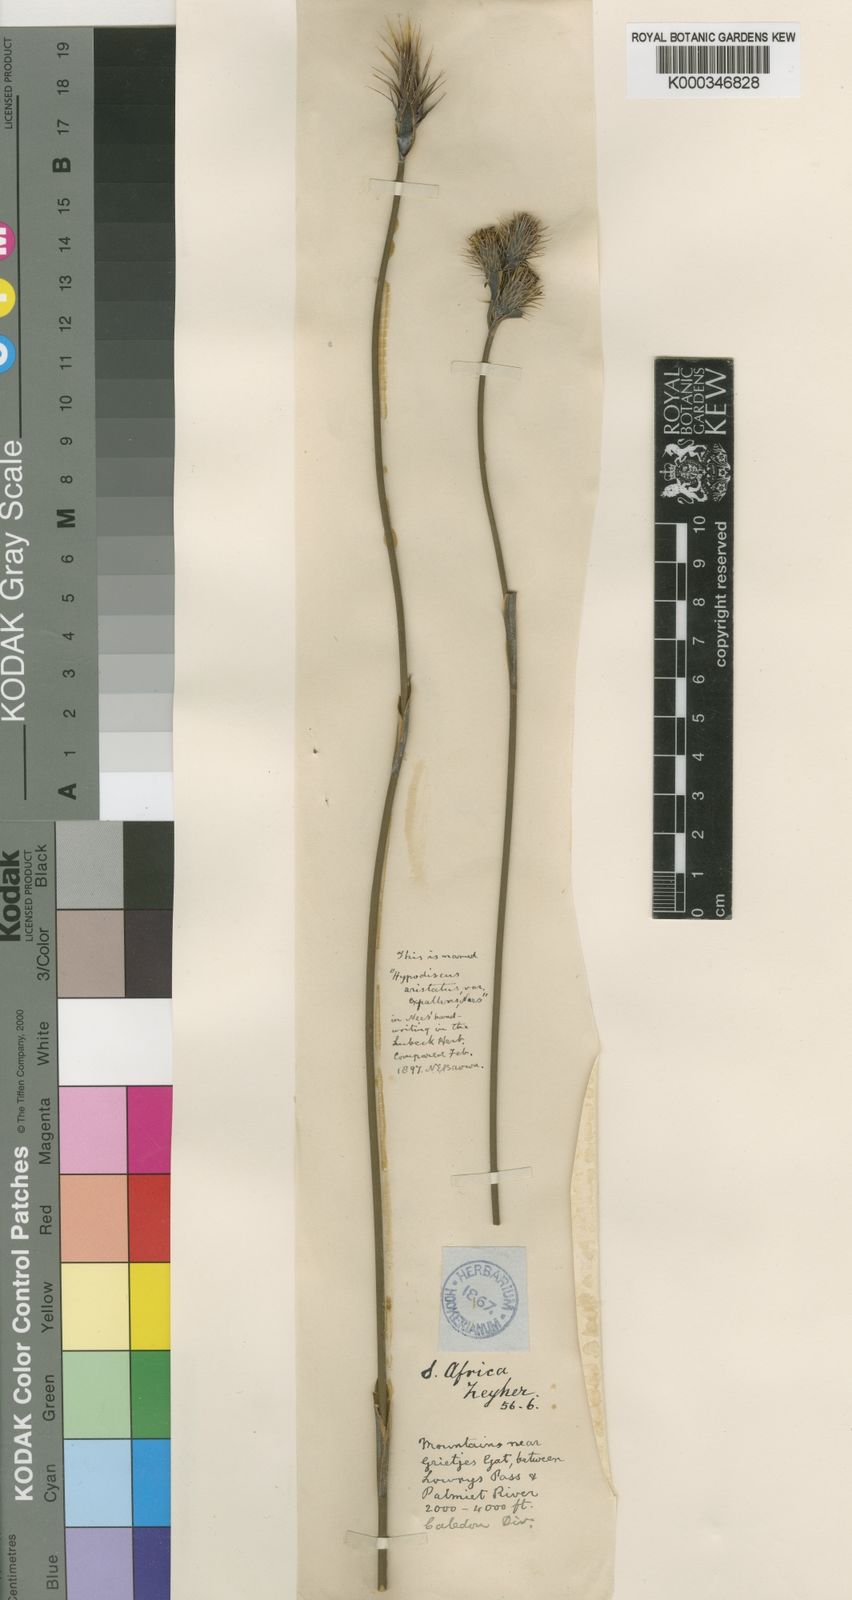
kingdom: Plantae
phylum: Tracheophyta
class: Liliopsida
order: Poales
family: Restionaceae
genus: Hypodiscus
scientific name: Hypodiscus aristatus
